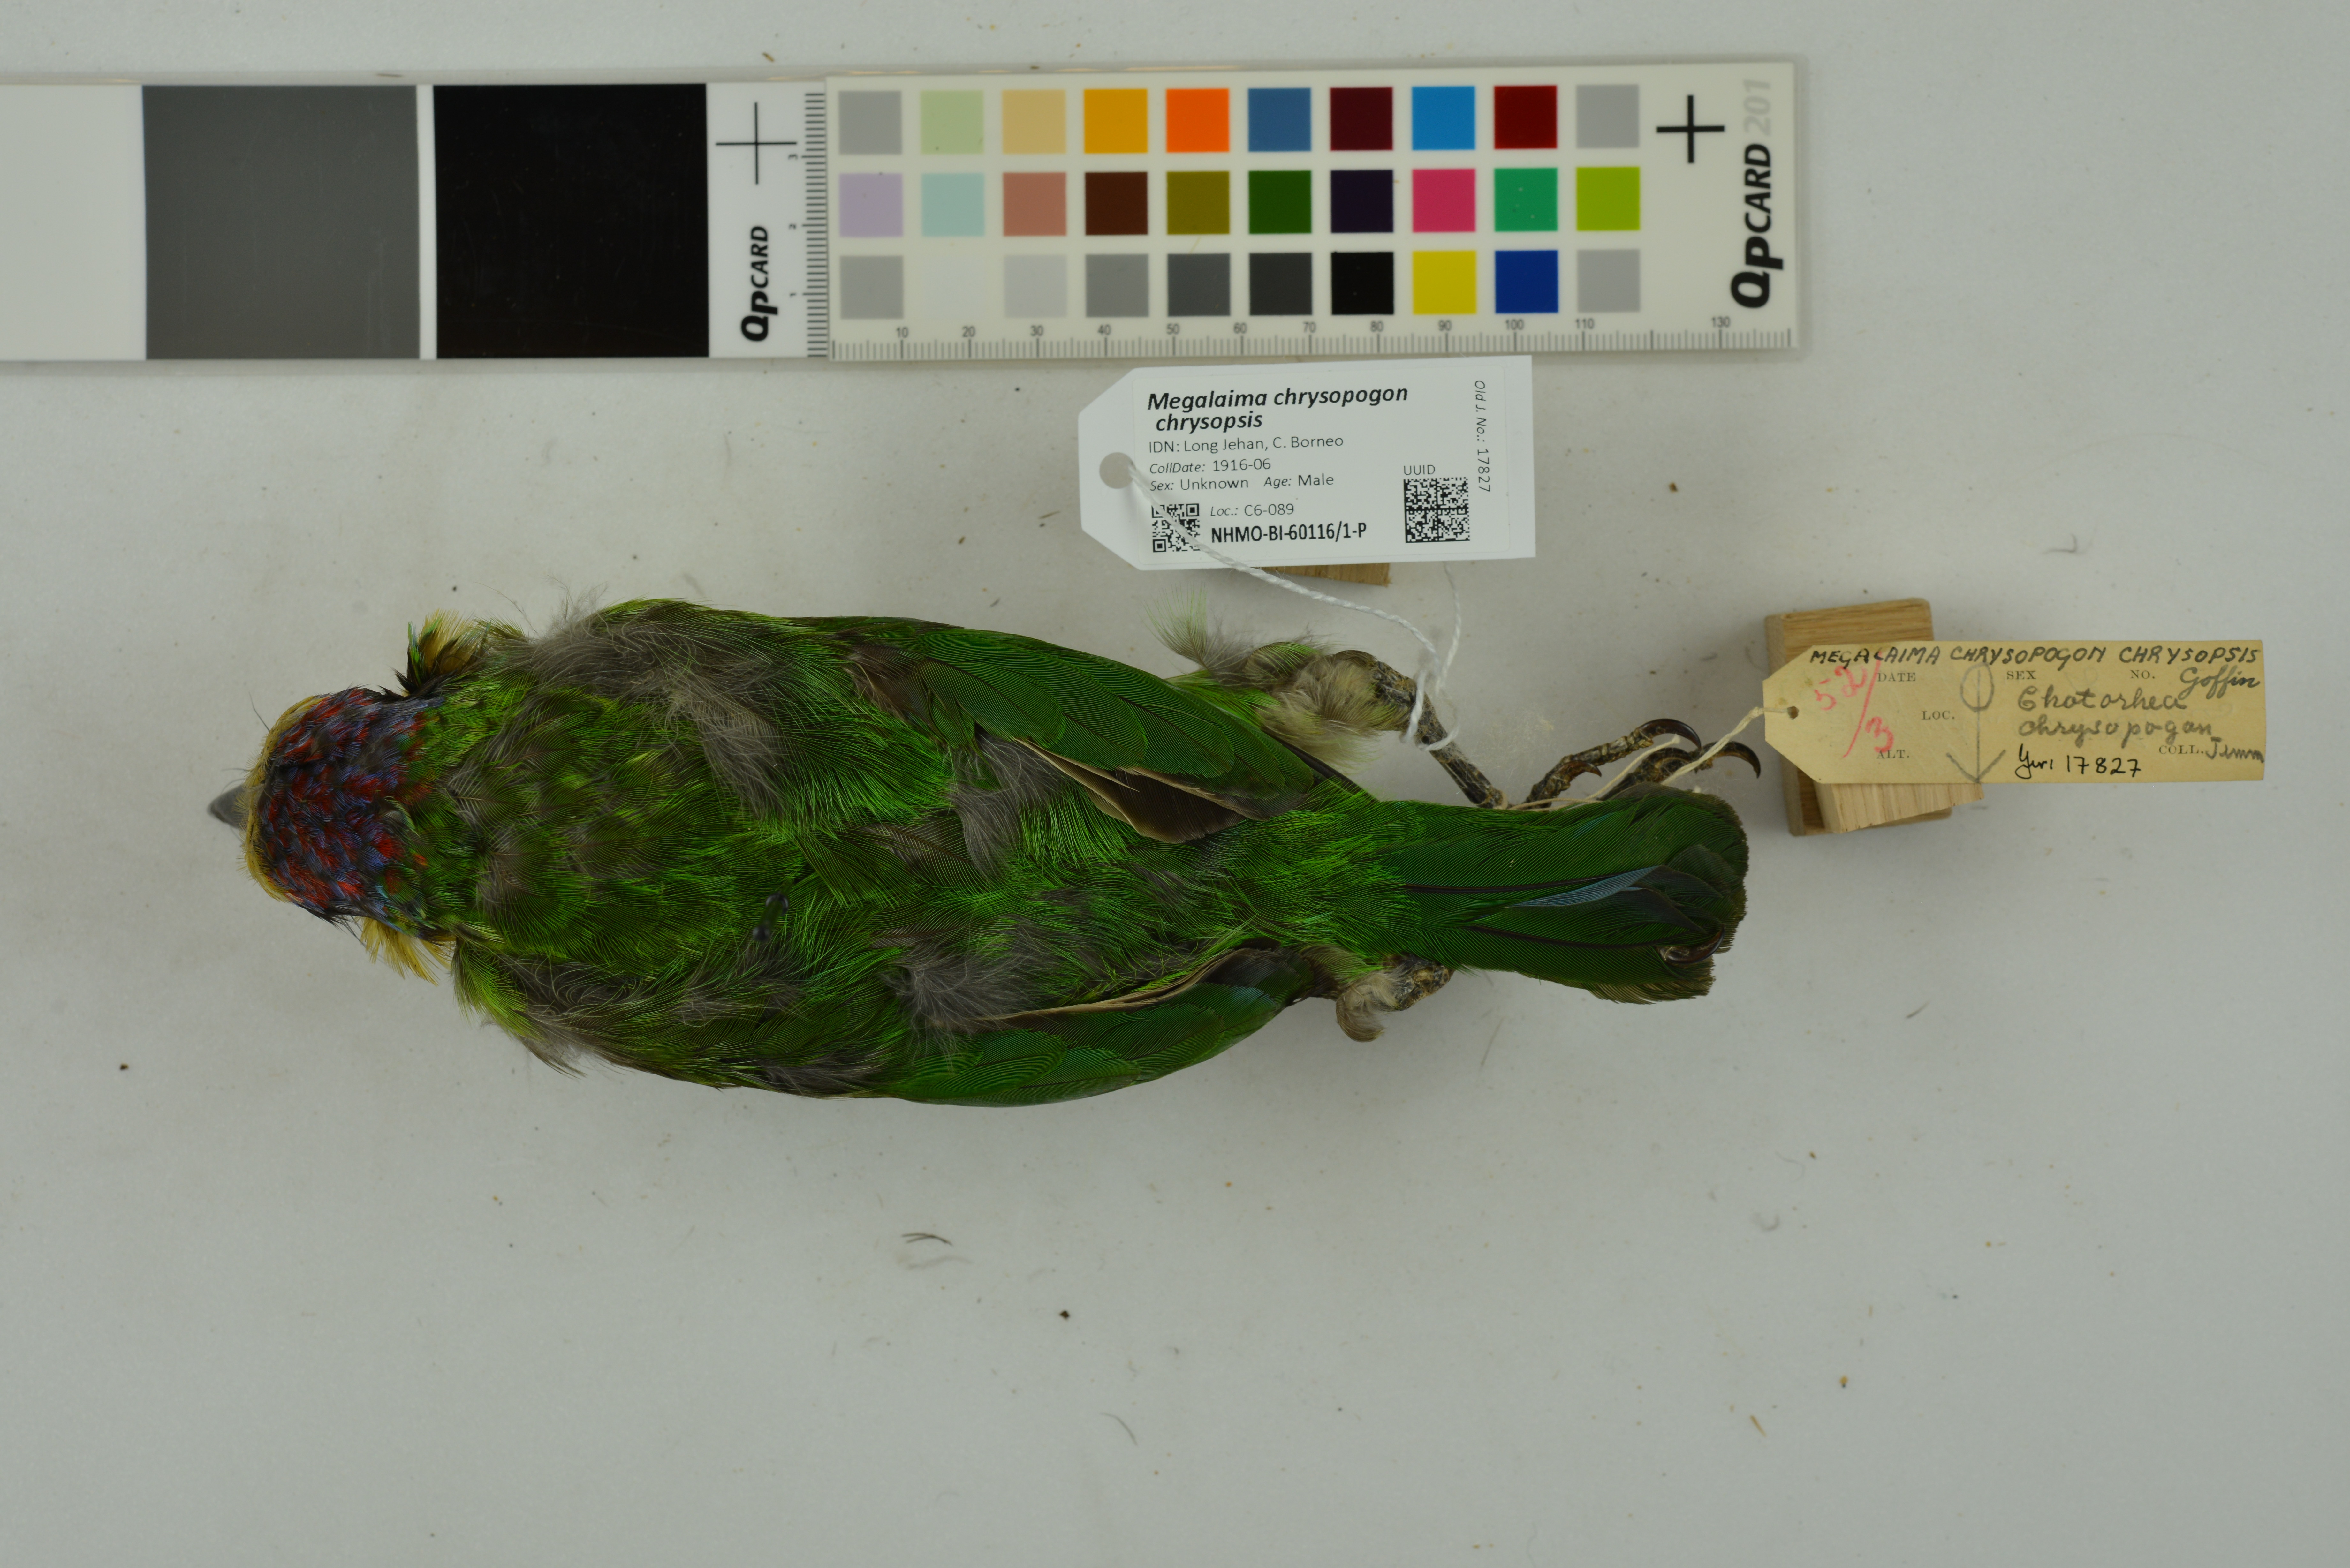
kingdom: Animalia
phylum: Chordata
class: Aves
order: Piciformes
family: Megalaimidae
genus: Psilopogon
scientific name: Psilopogon chrysopogon
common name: Golden-whiskered barbet
